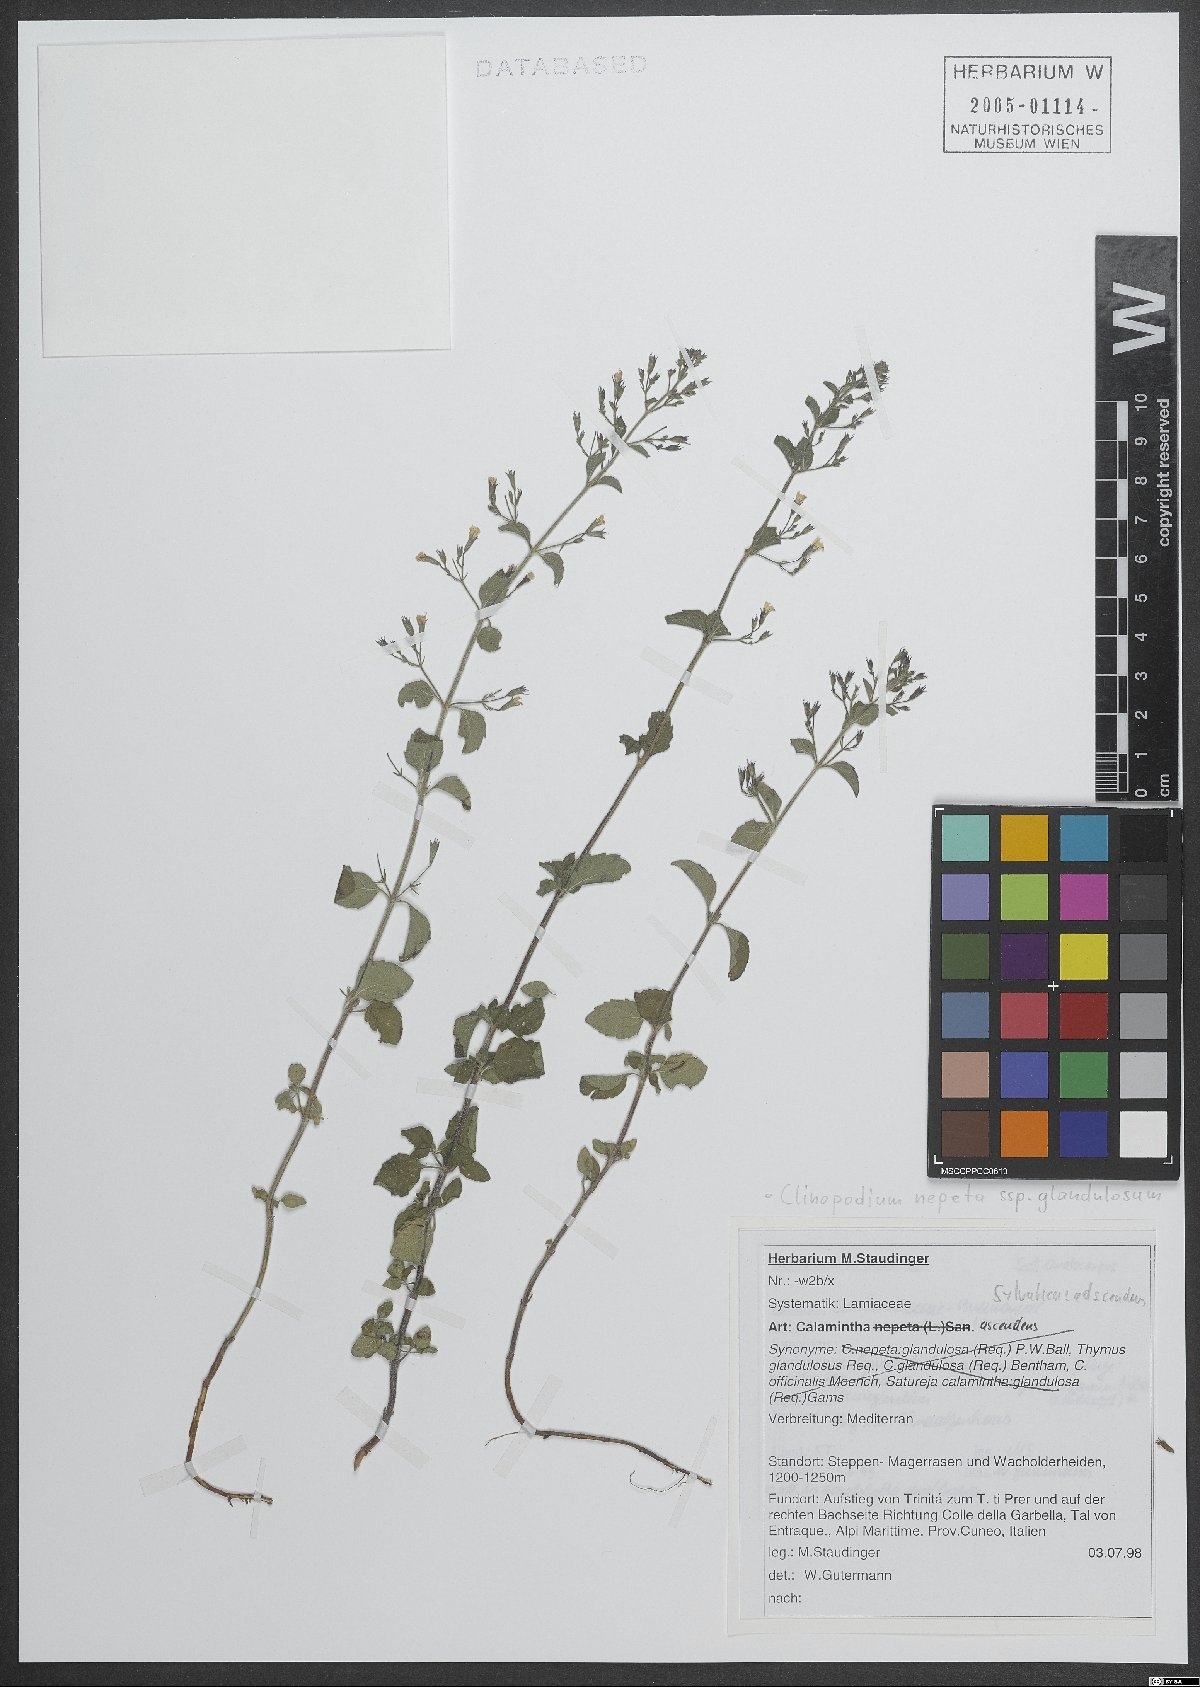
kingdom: Plantae
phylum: Tracheophyta
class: Magnoliopsida
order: Lamiales
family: Lamiaceae
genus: Clinopodium
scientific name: Clinopodium nepeta
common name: Lesser calamint
